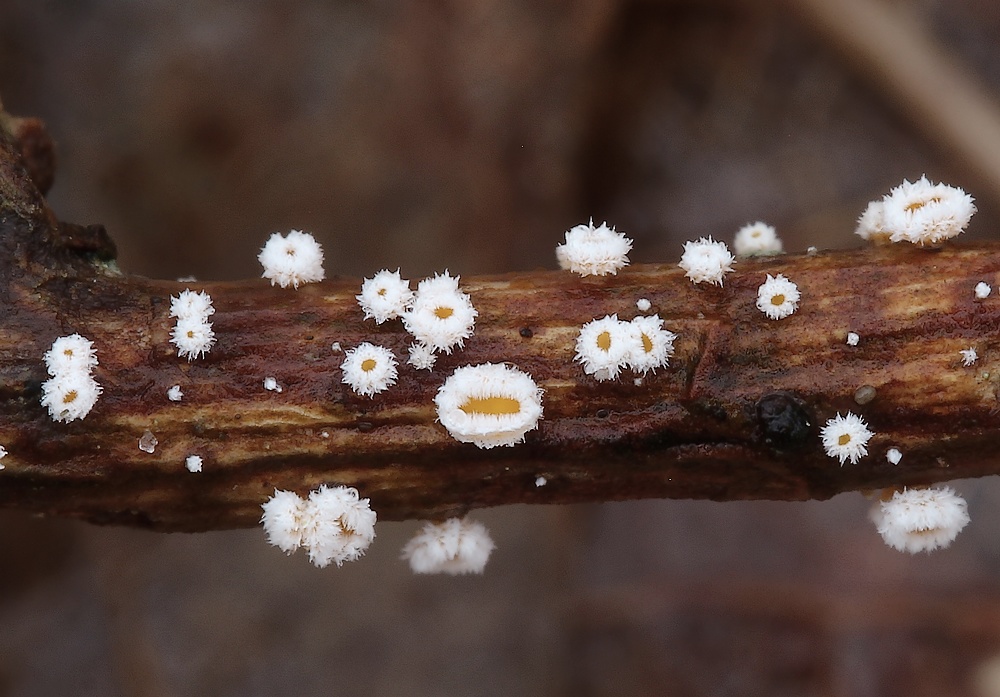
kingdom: Fungi
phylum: Ascomycota
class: Leotiomycetes
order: Helotiales
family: Lachnaceae
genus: Capitotricha
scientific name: Capitotricha bicolor
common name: prægtig frynseskive
